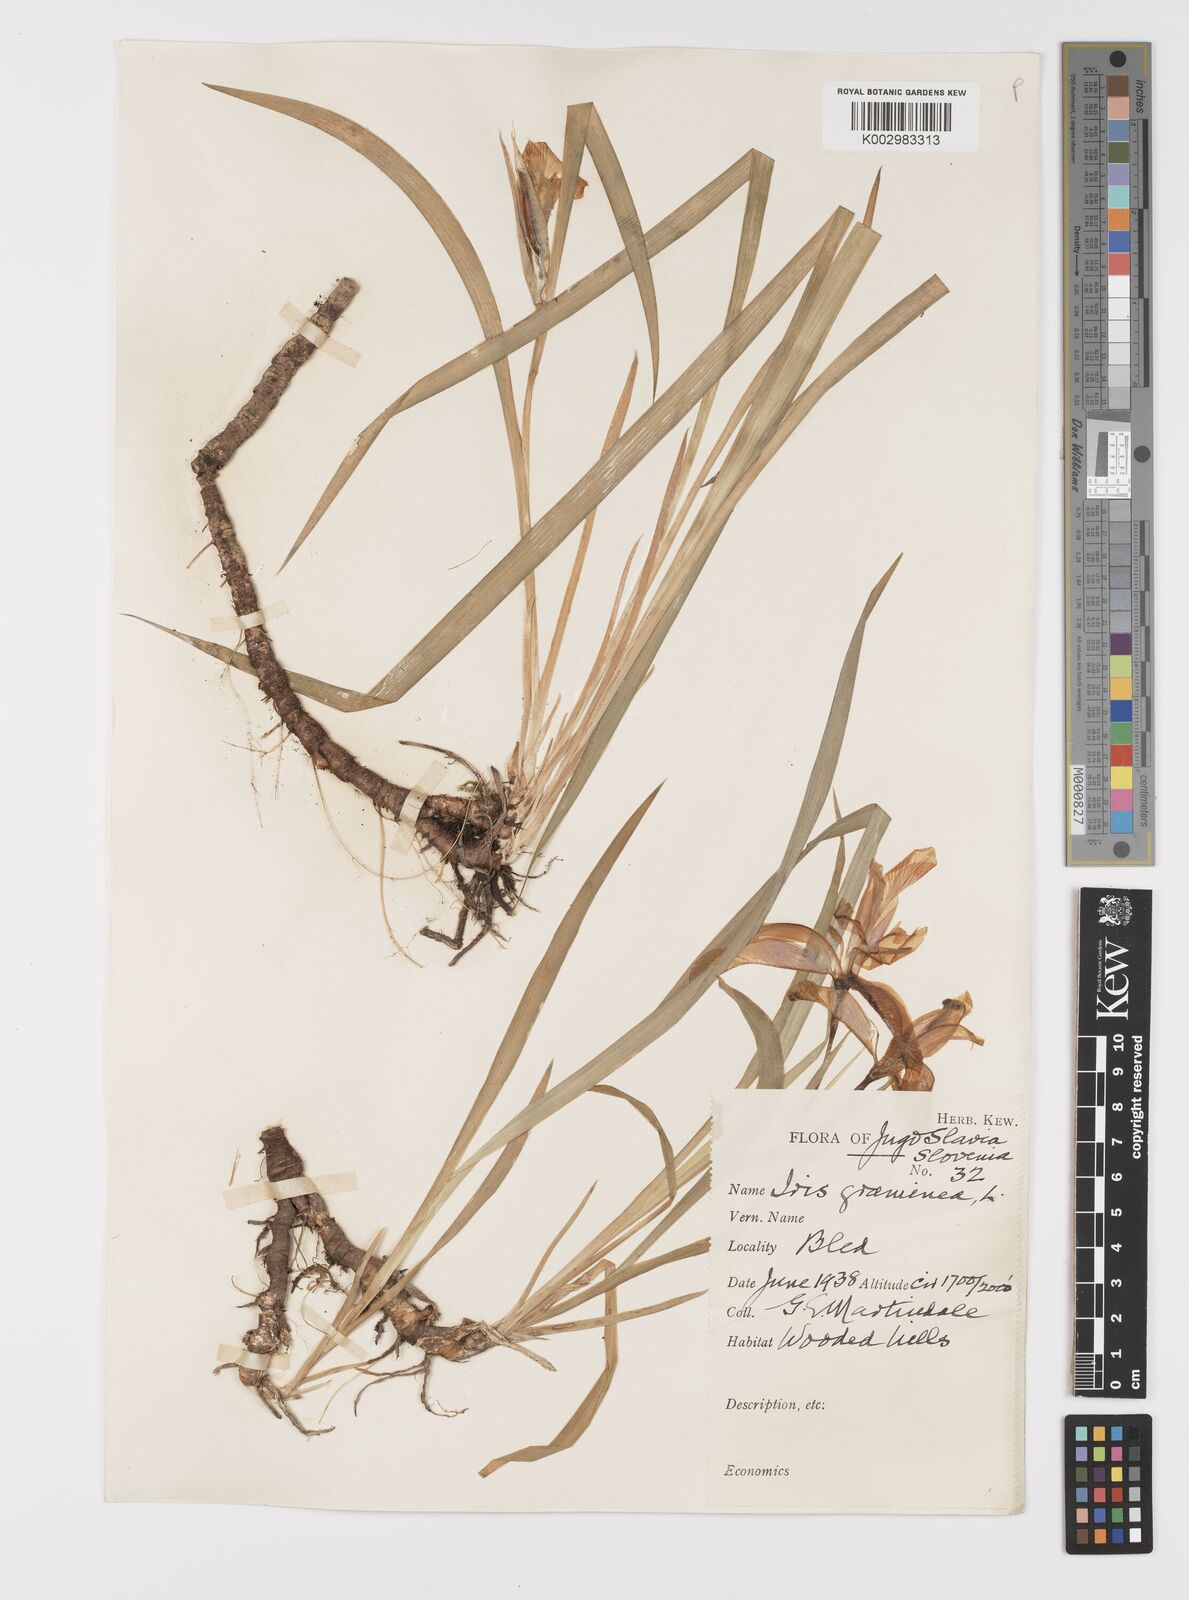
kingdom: Plantae
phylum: Tracheophyta
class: Liliopsida
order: Asparagales
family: Iridaceae
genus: Iris
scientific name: Iris graminea
